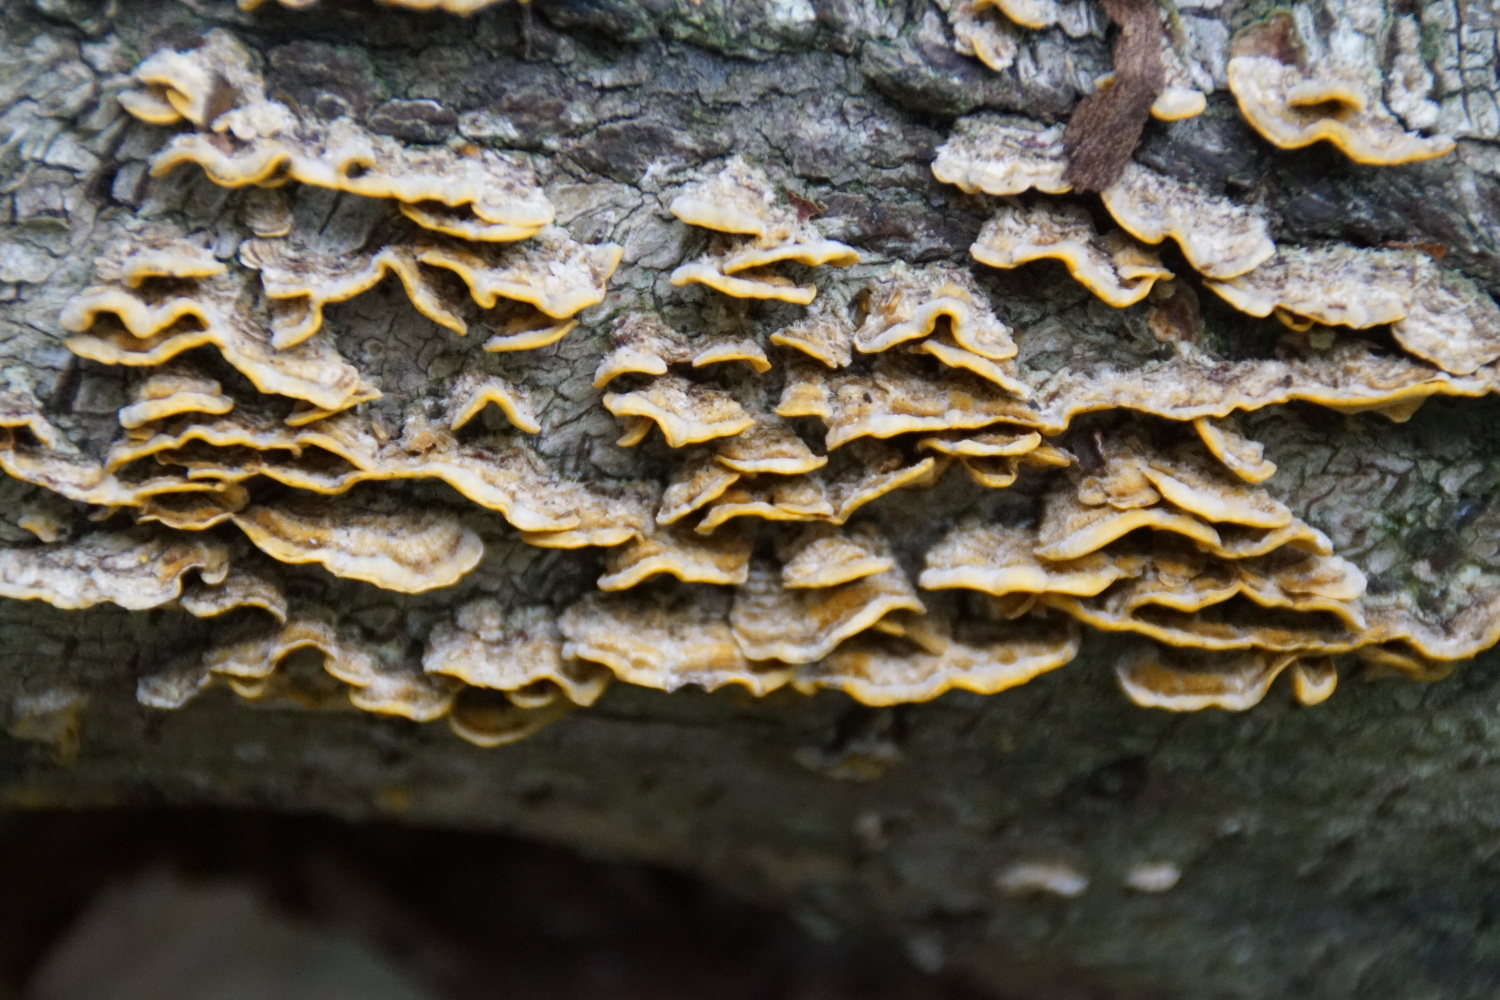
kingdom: Fungi
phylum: Basidiomycota
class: Agaricomycetes
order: Russulales
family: Stereaceae
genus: Stereum
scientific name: Stereum hirsutum
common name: håret lædersvamp
